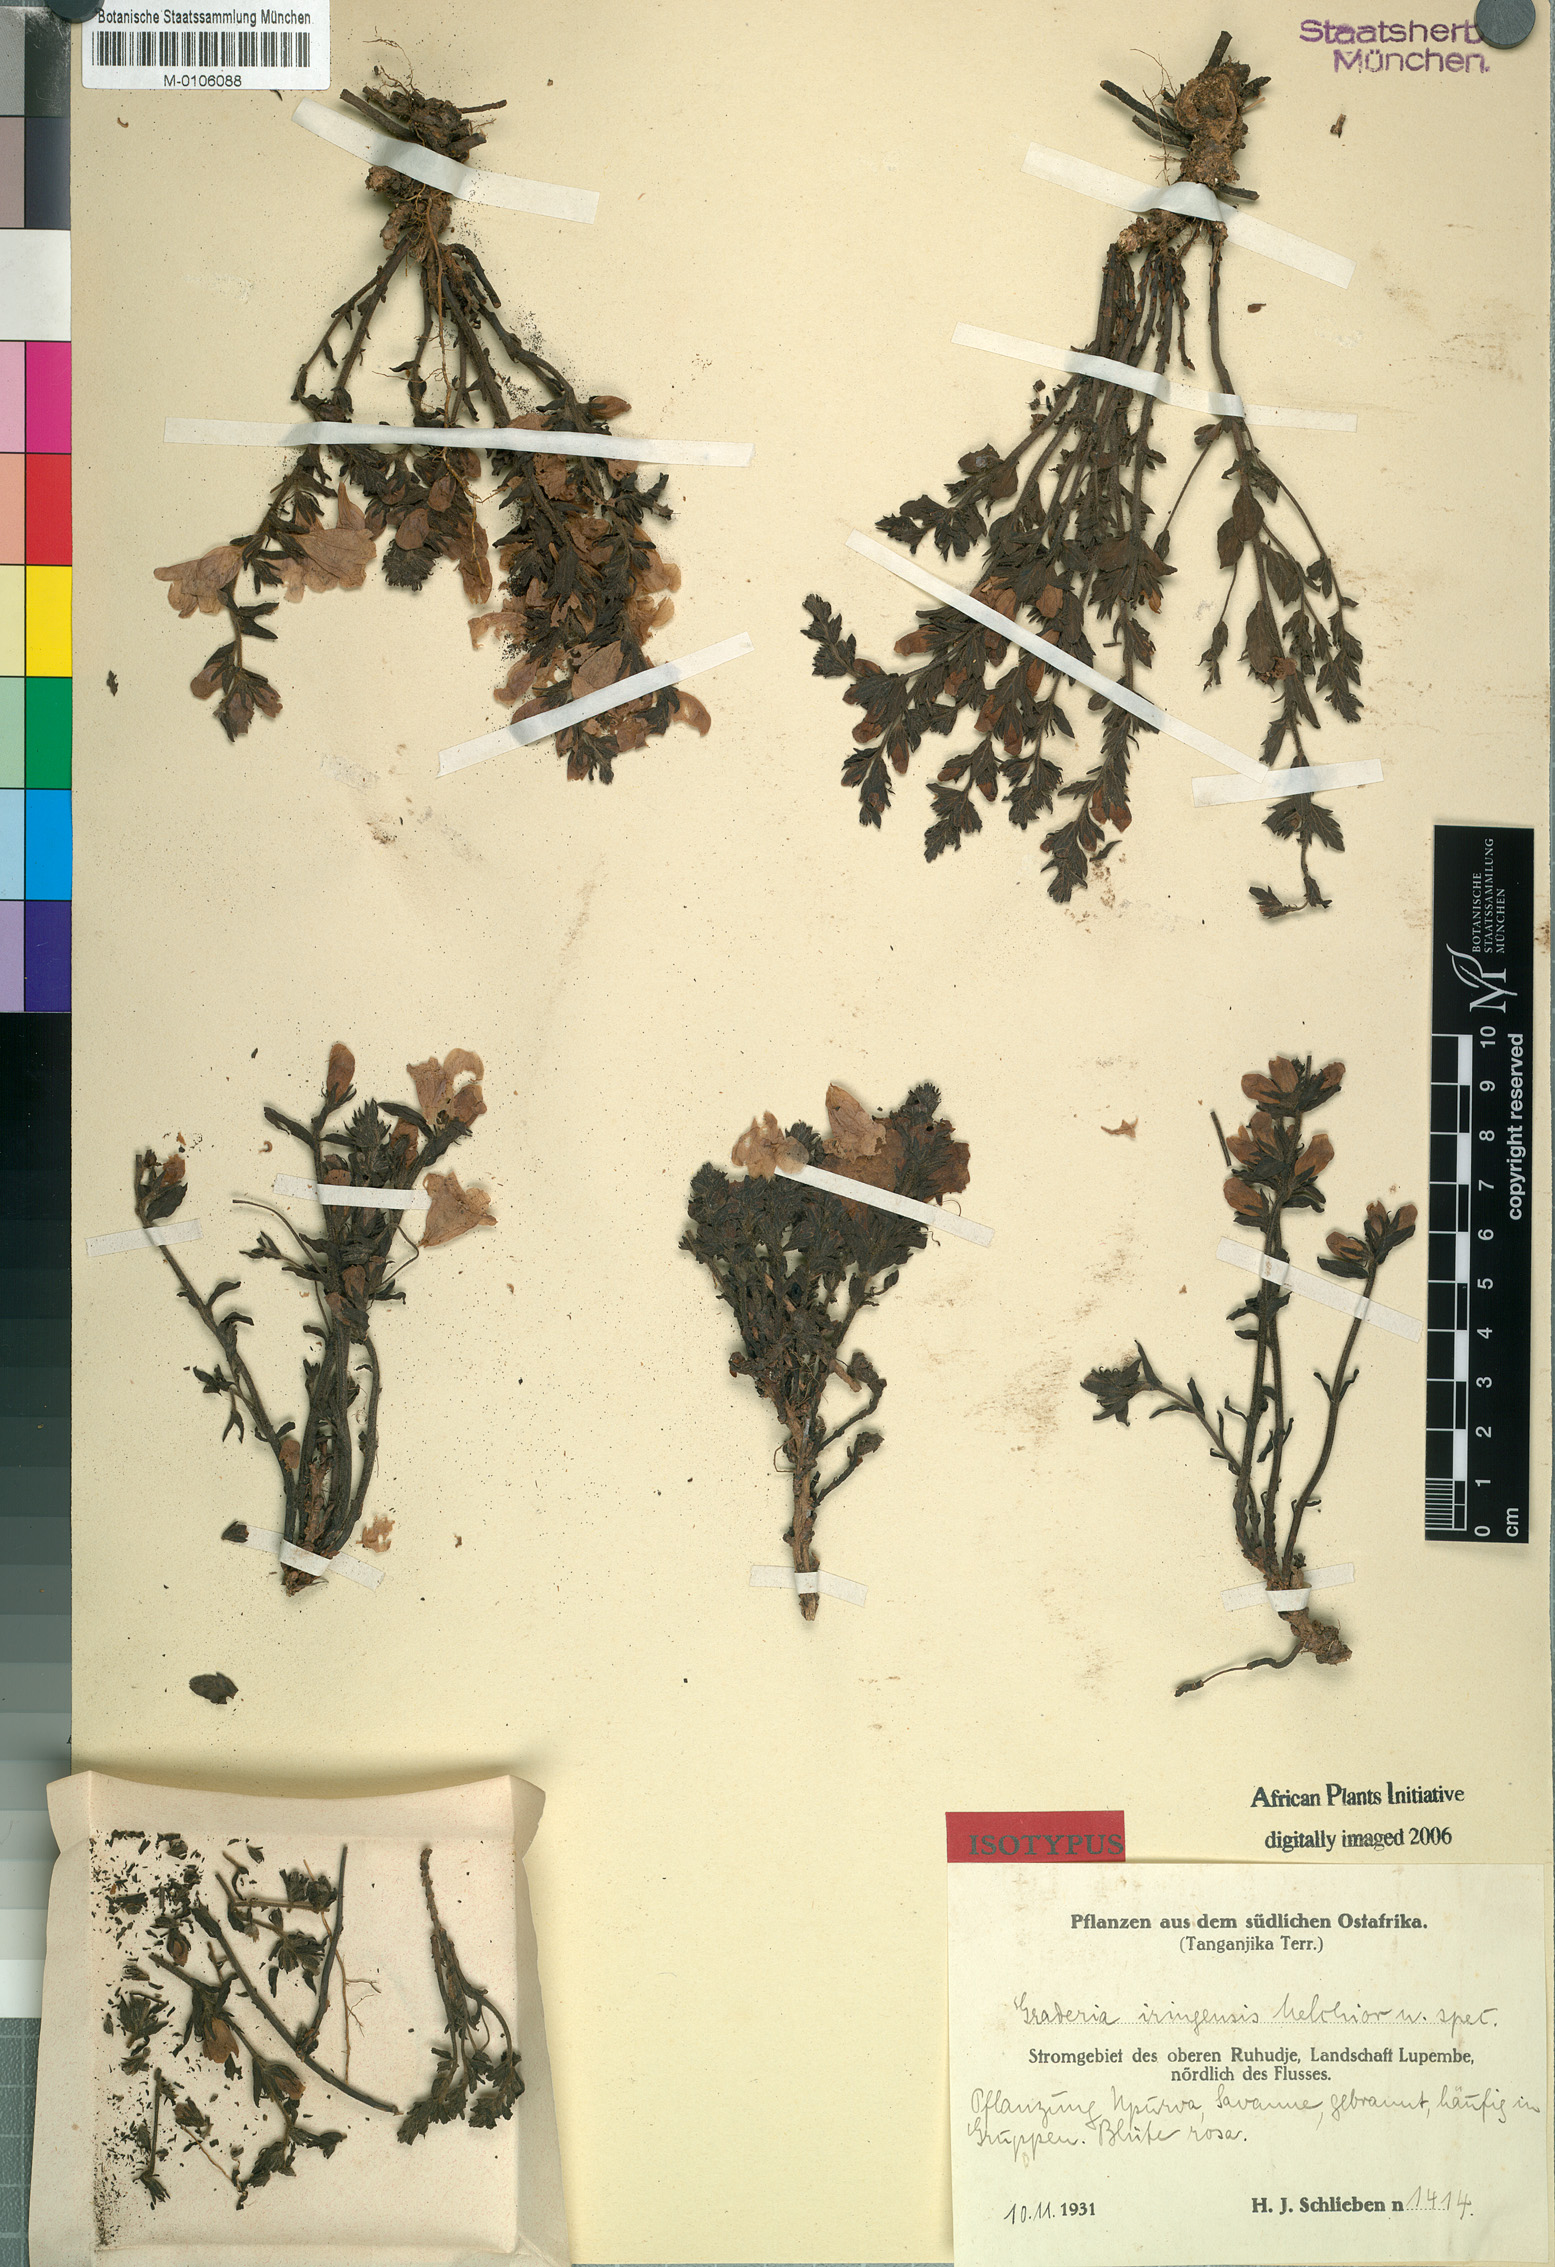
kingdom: Plantae
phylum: Tracheophyta
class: Magnoliopsida
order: Lamiales
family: Orobanchaceae
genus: Graderia
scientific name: Graderia scabra
